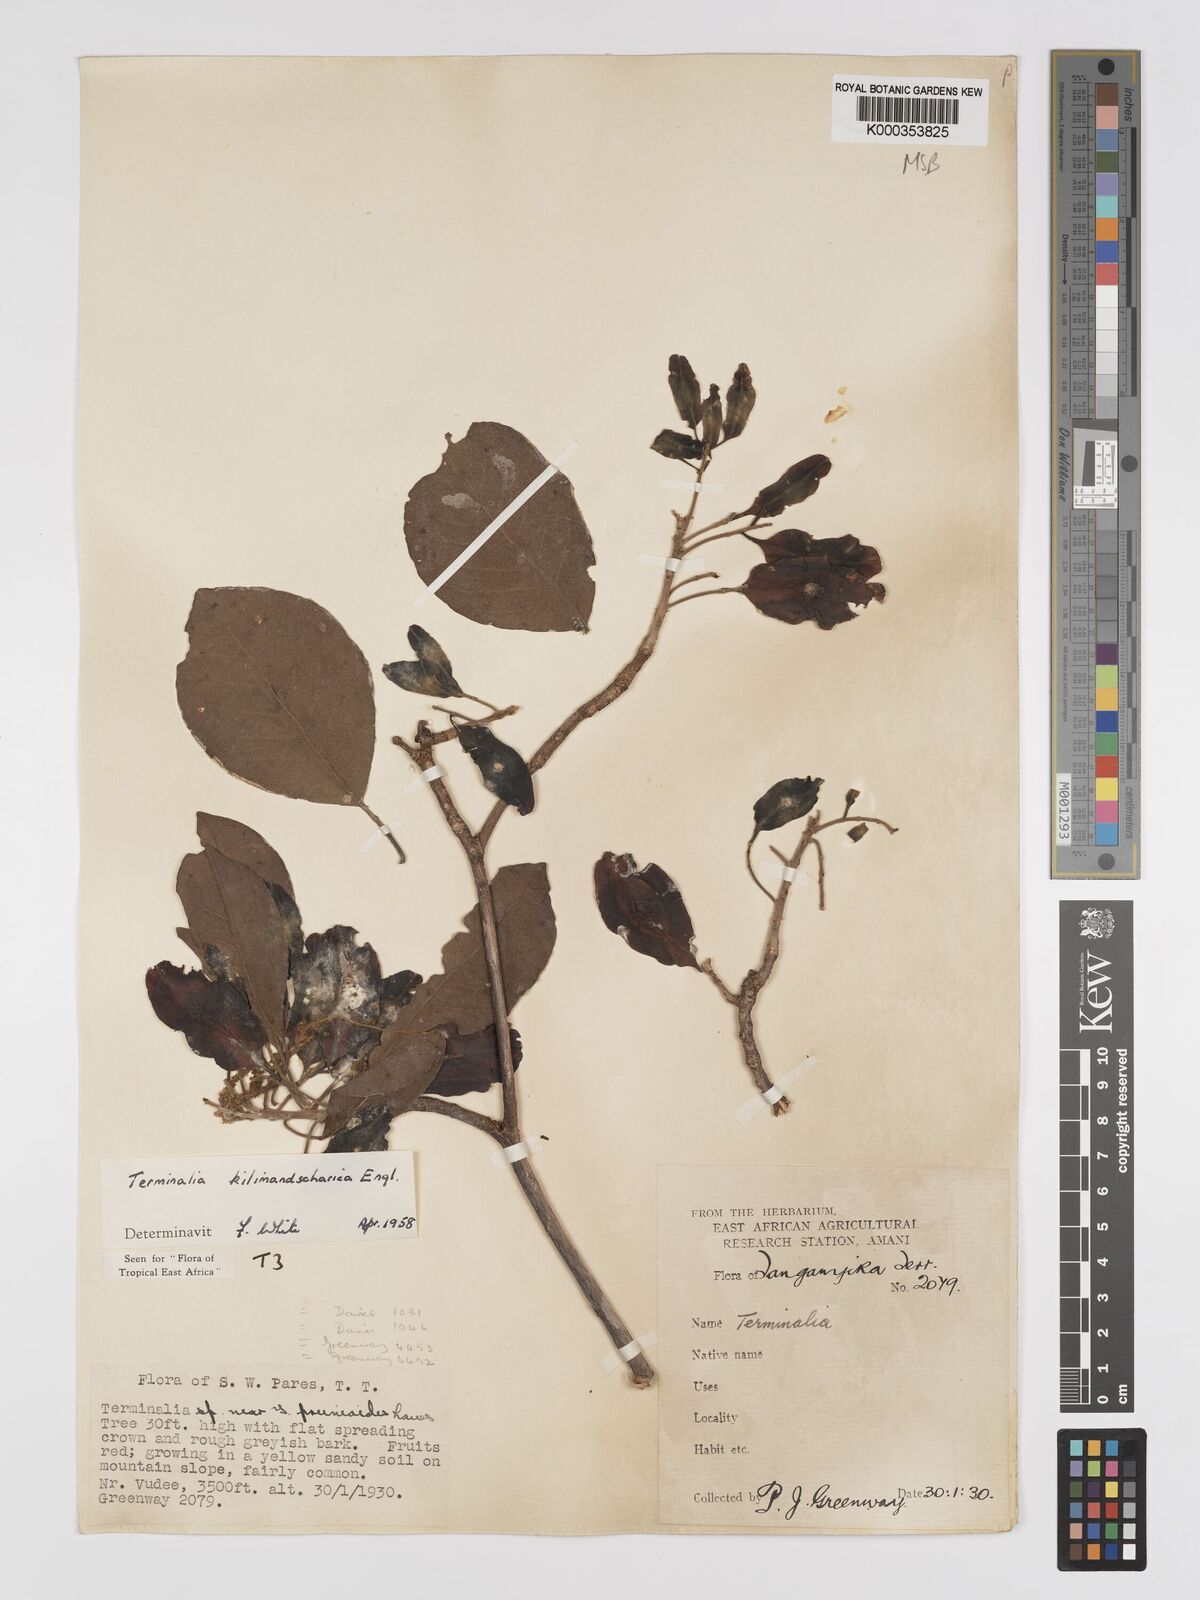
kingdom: Plantae
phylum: Tracheophyta
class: Magnoliopsida
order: Myrtales
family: Combretaceae
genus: Terminalia
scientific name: Terminalia kilimandscharica
